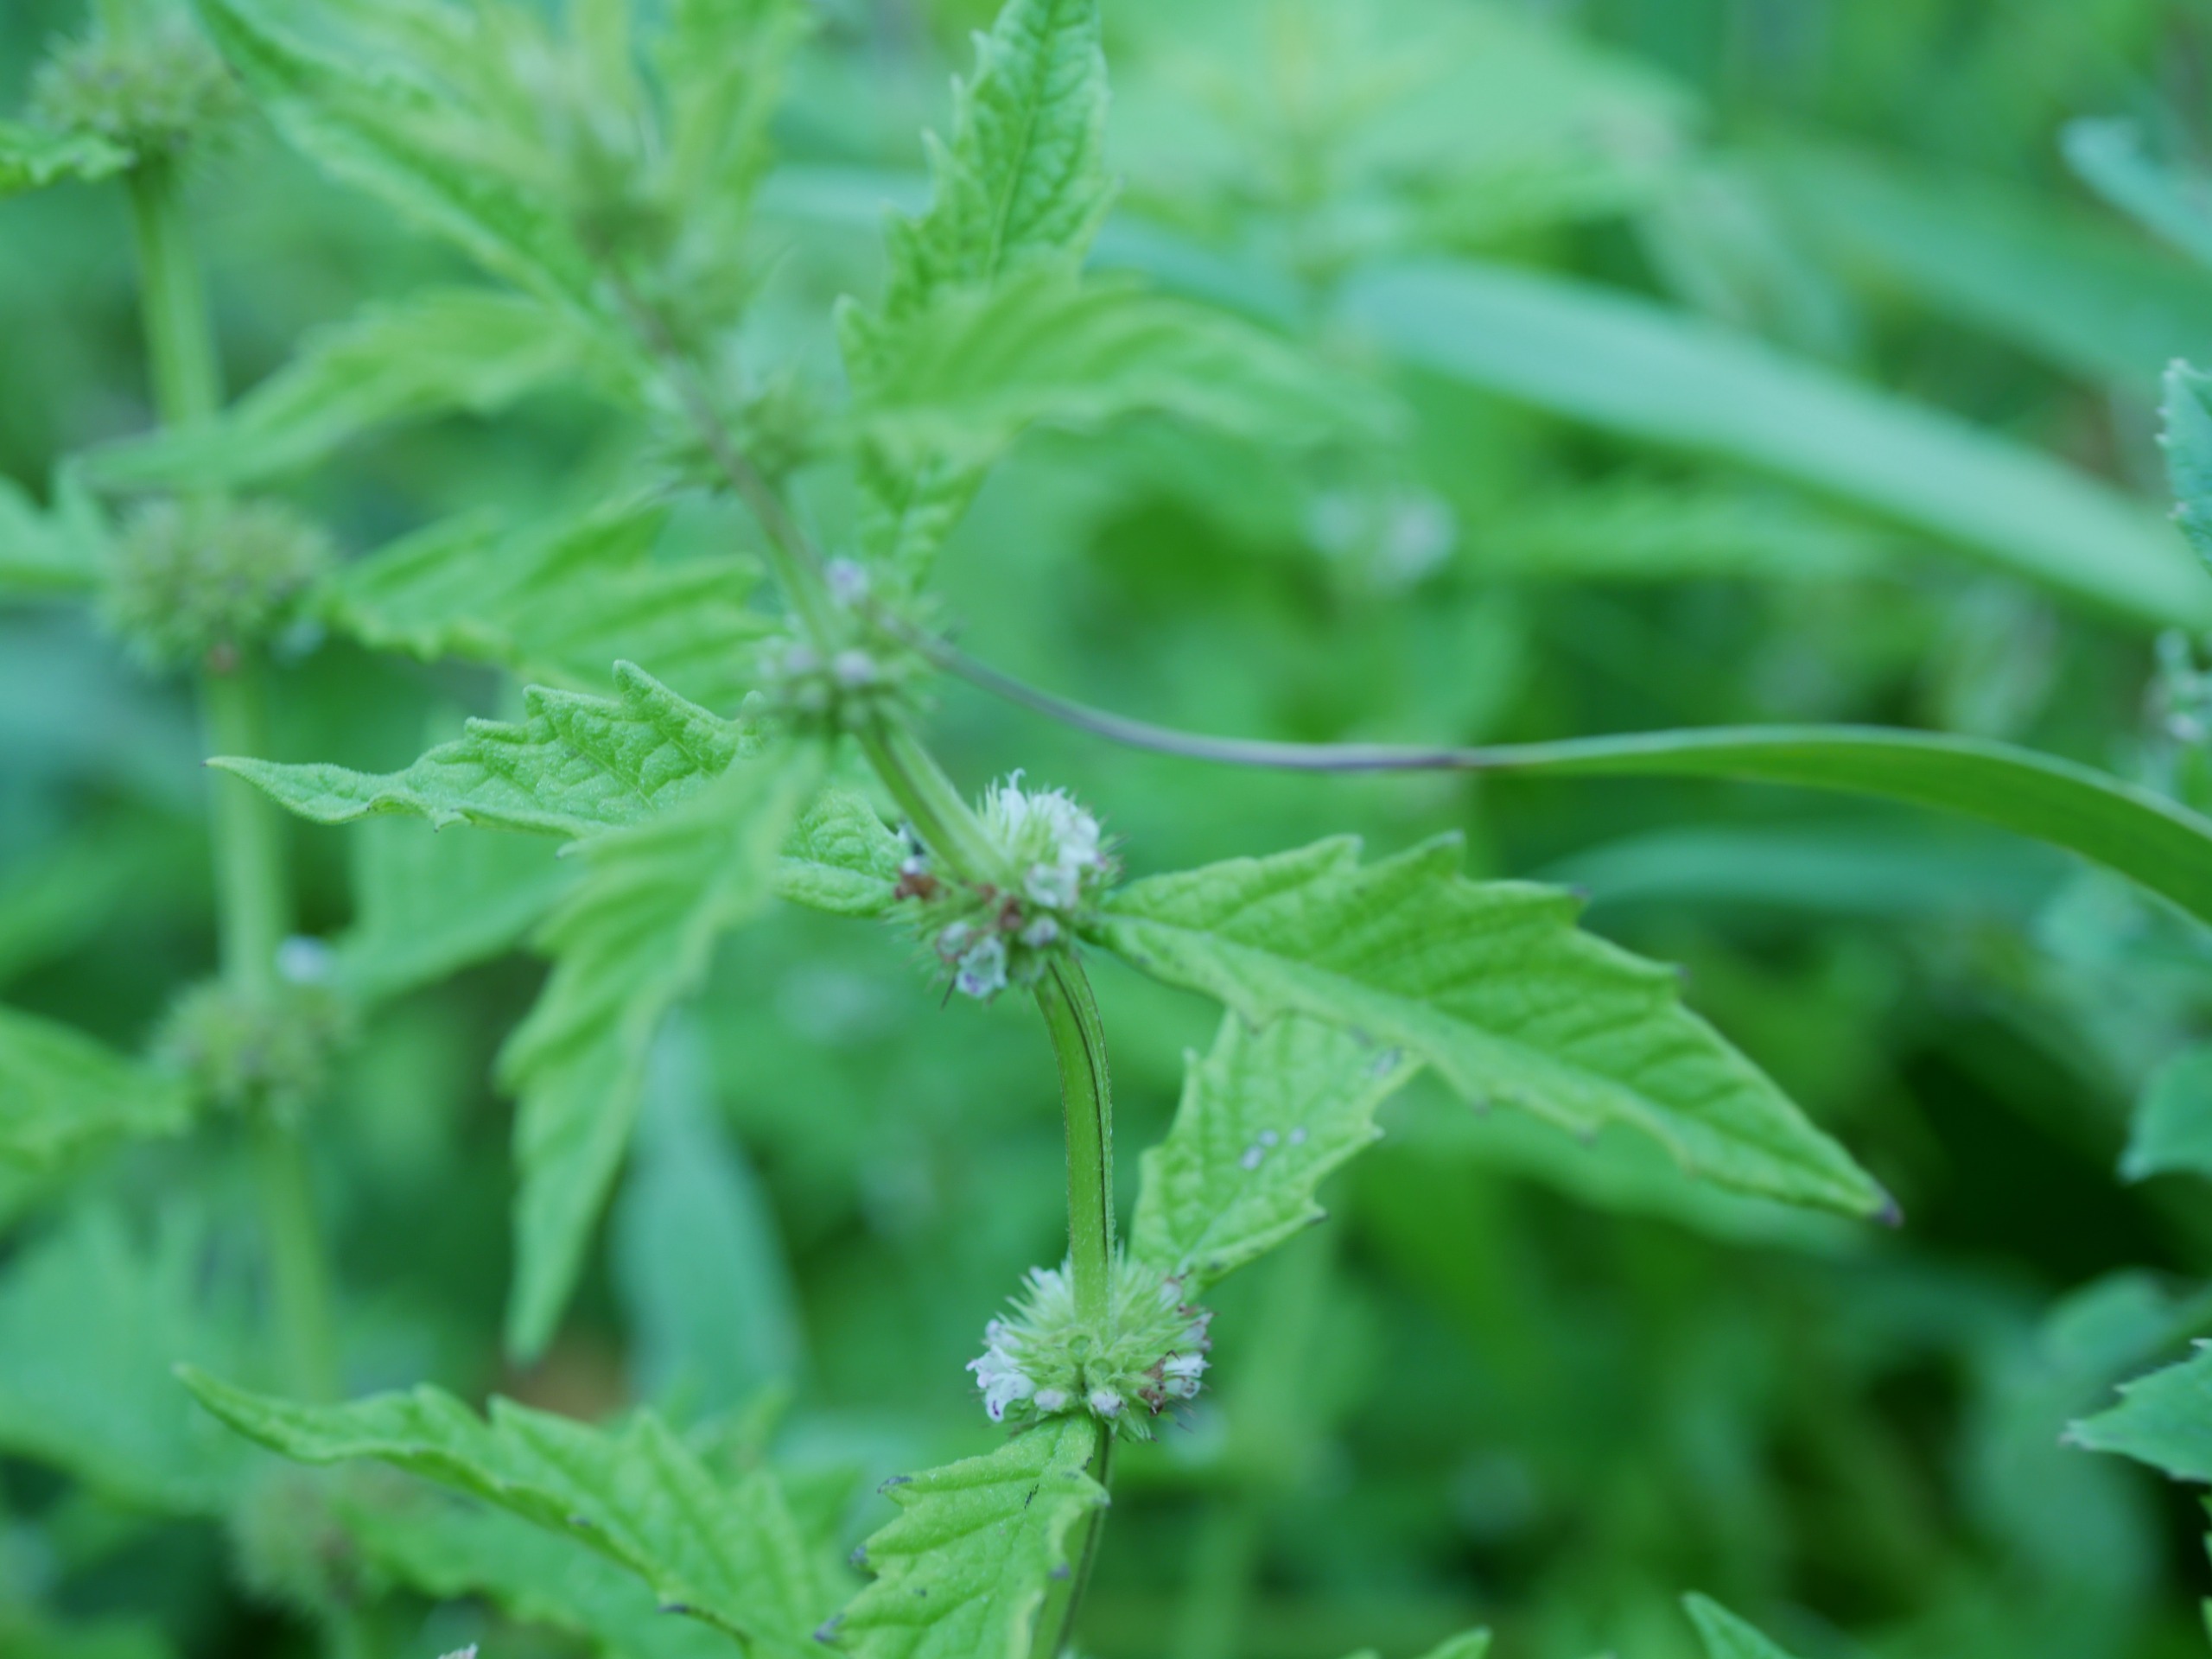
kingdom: Plantae
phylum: Tracheophyta
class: Magnoliopsida
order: Lamiales
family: Lamiaceae
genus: Lycopus
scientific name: Lycopus europaeus
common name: Sværtevæld
